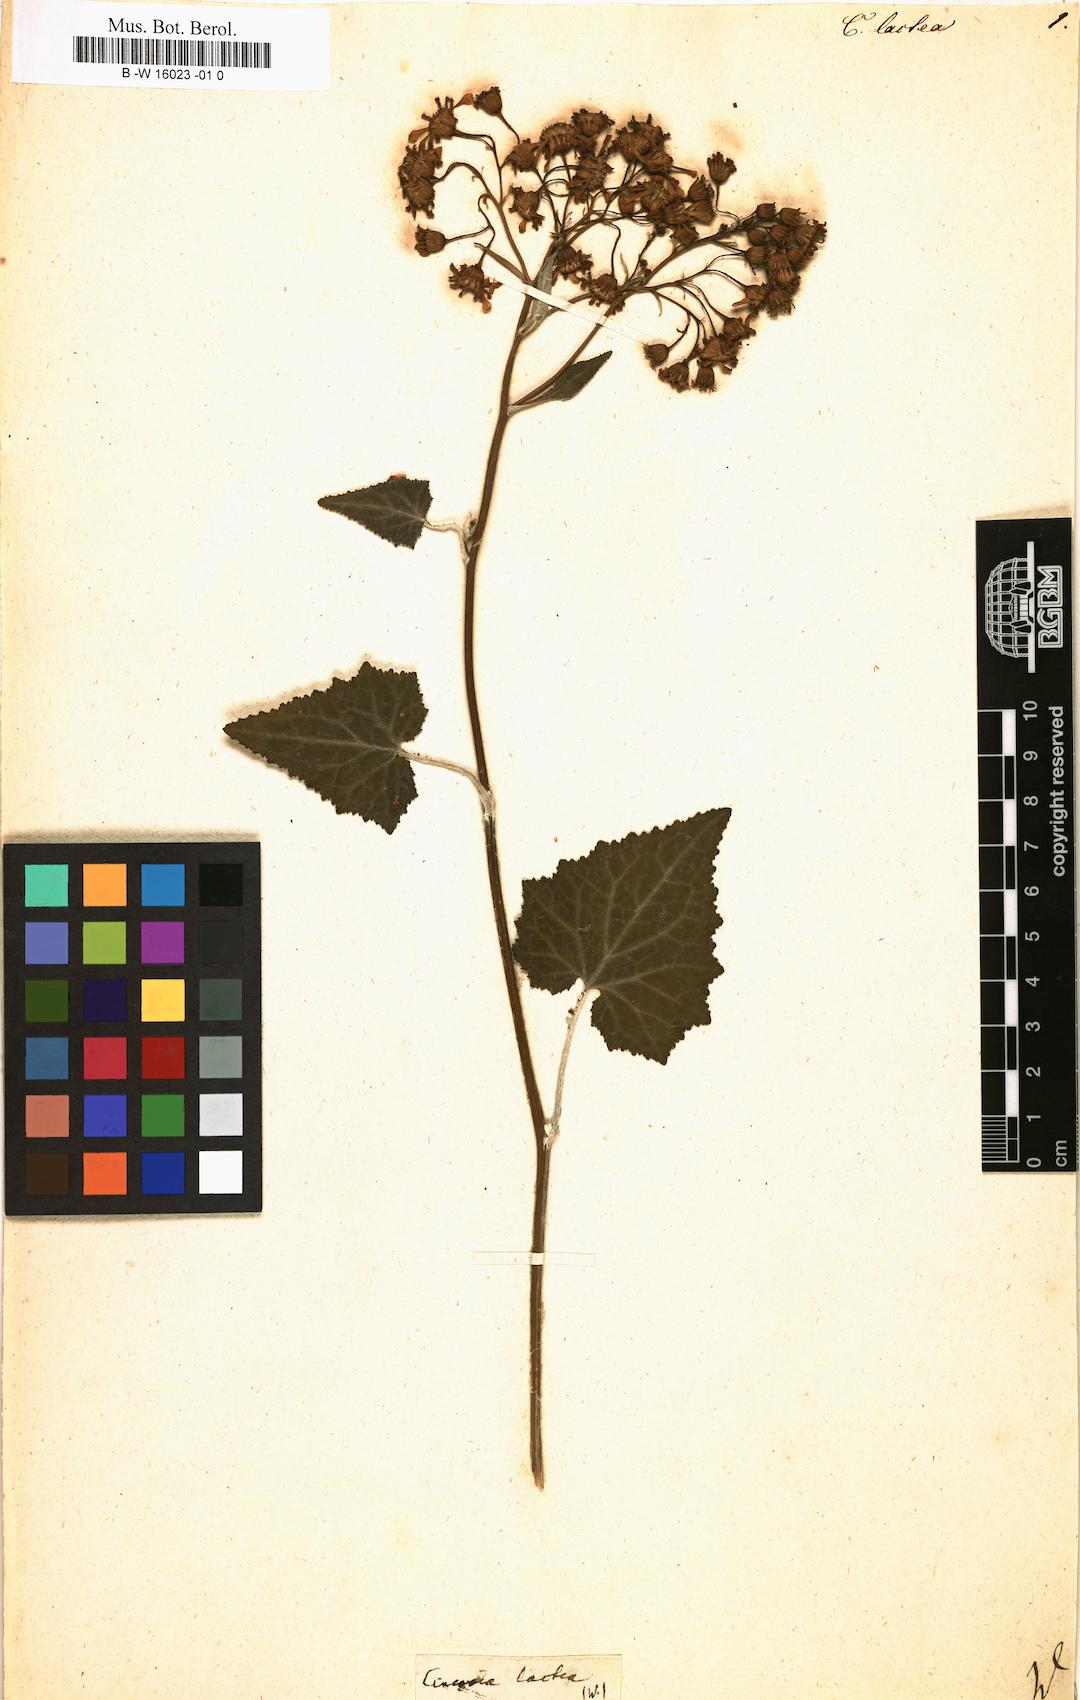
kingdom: Plantae
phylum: Tracheophyta
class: Magnoliopsida
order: Asterales
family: Asteraceae
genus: Pericallis
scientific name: Pericallis
